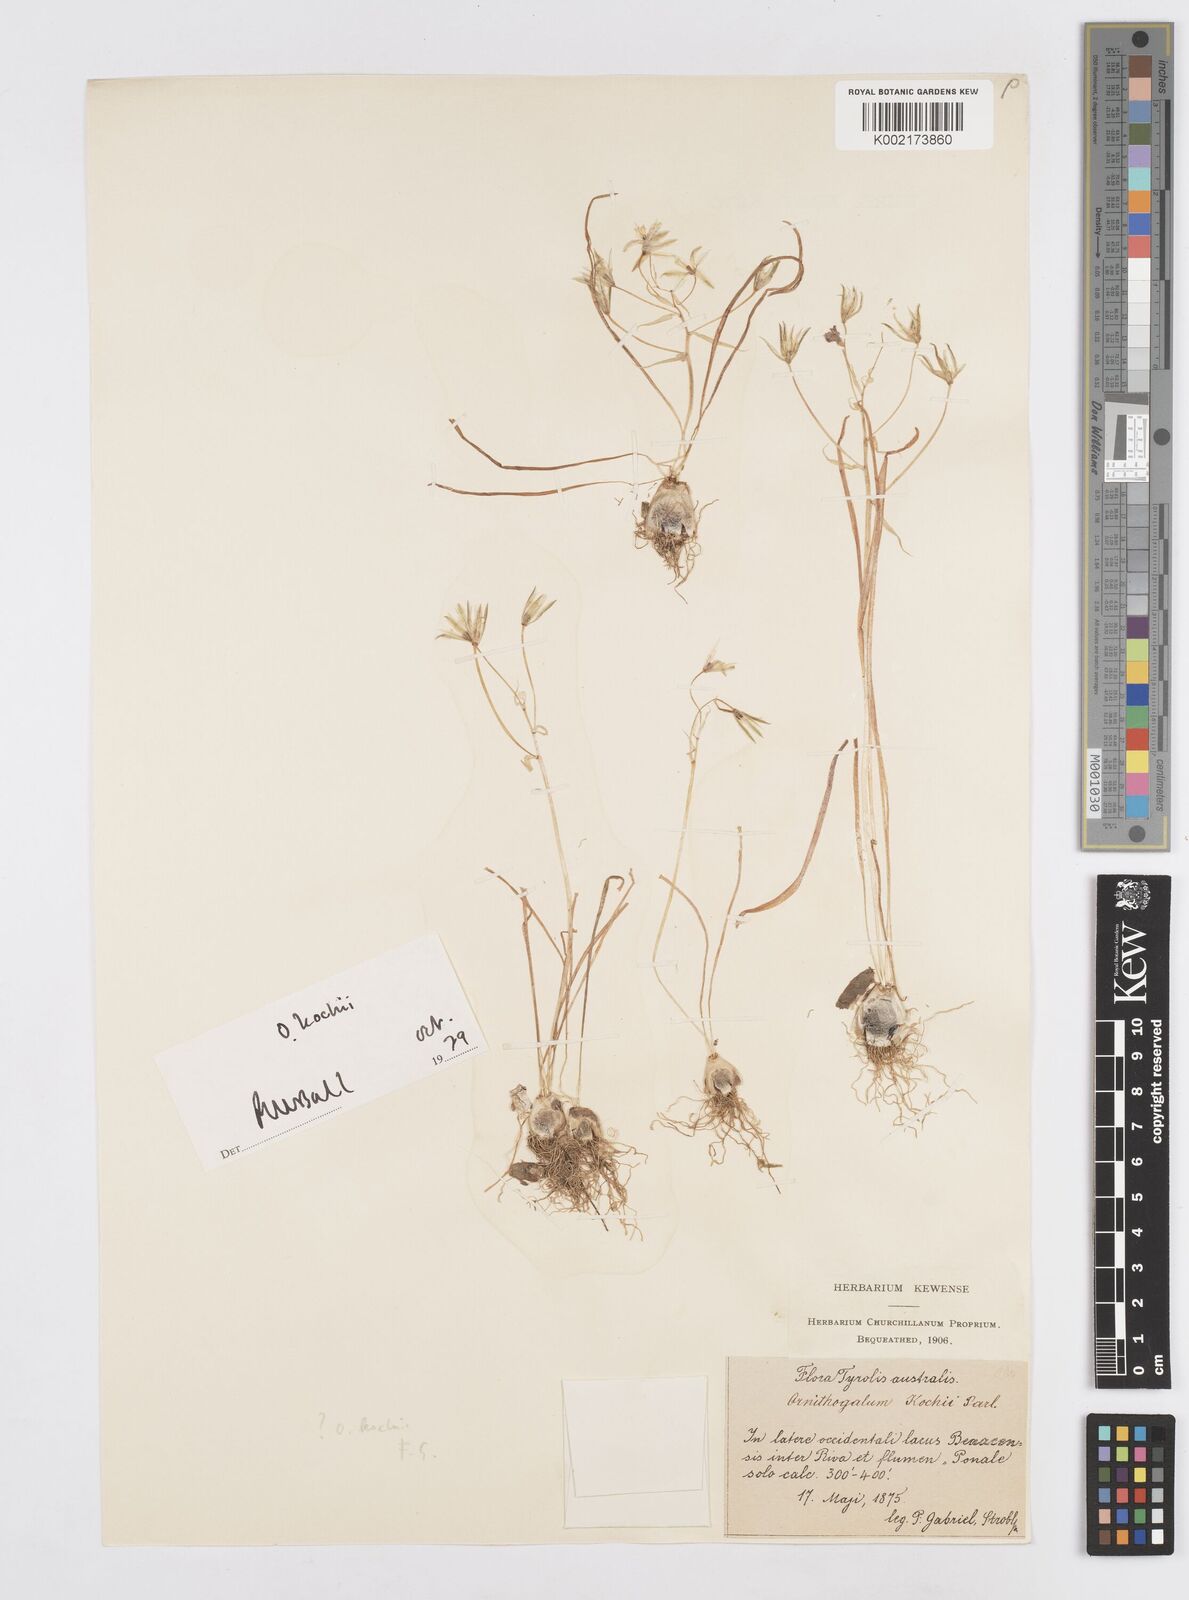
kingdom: Plantae
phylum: Tracheophyta
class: Liliopsida
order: Asparagales
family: Asparagaceae
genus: Ornithogalum
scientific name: Ornithogalum orthophyllum
